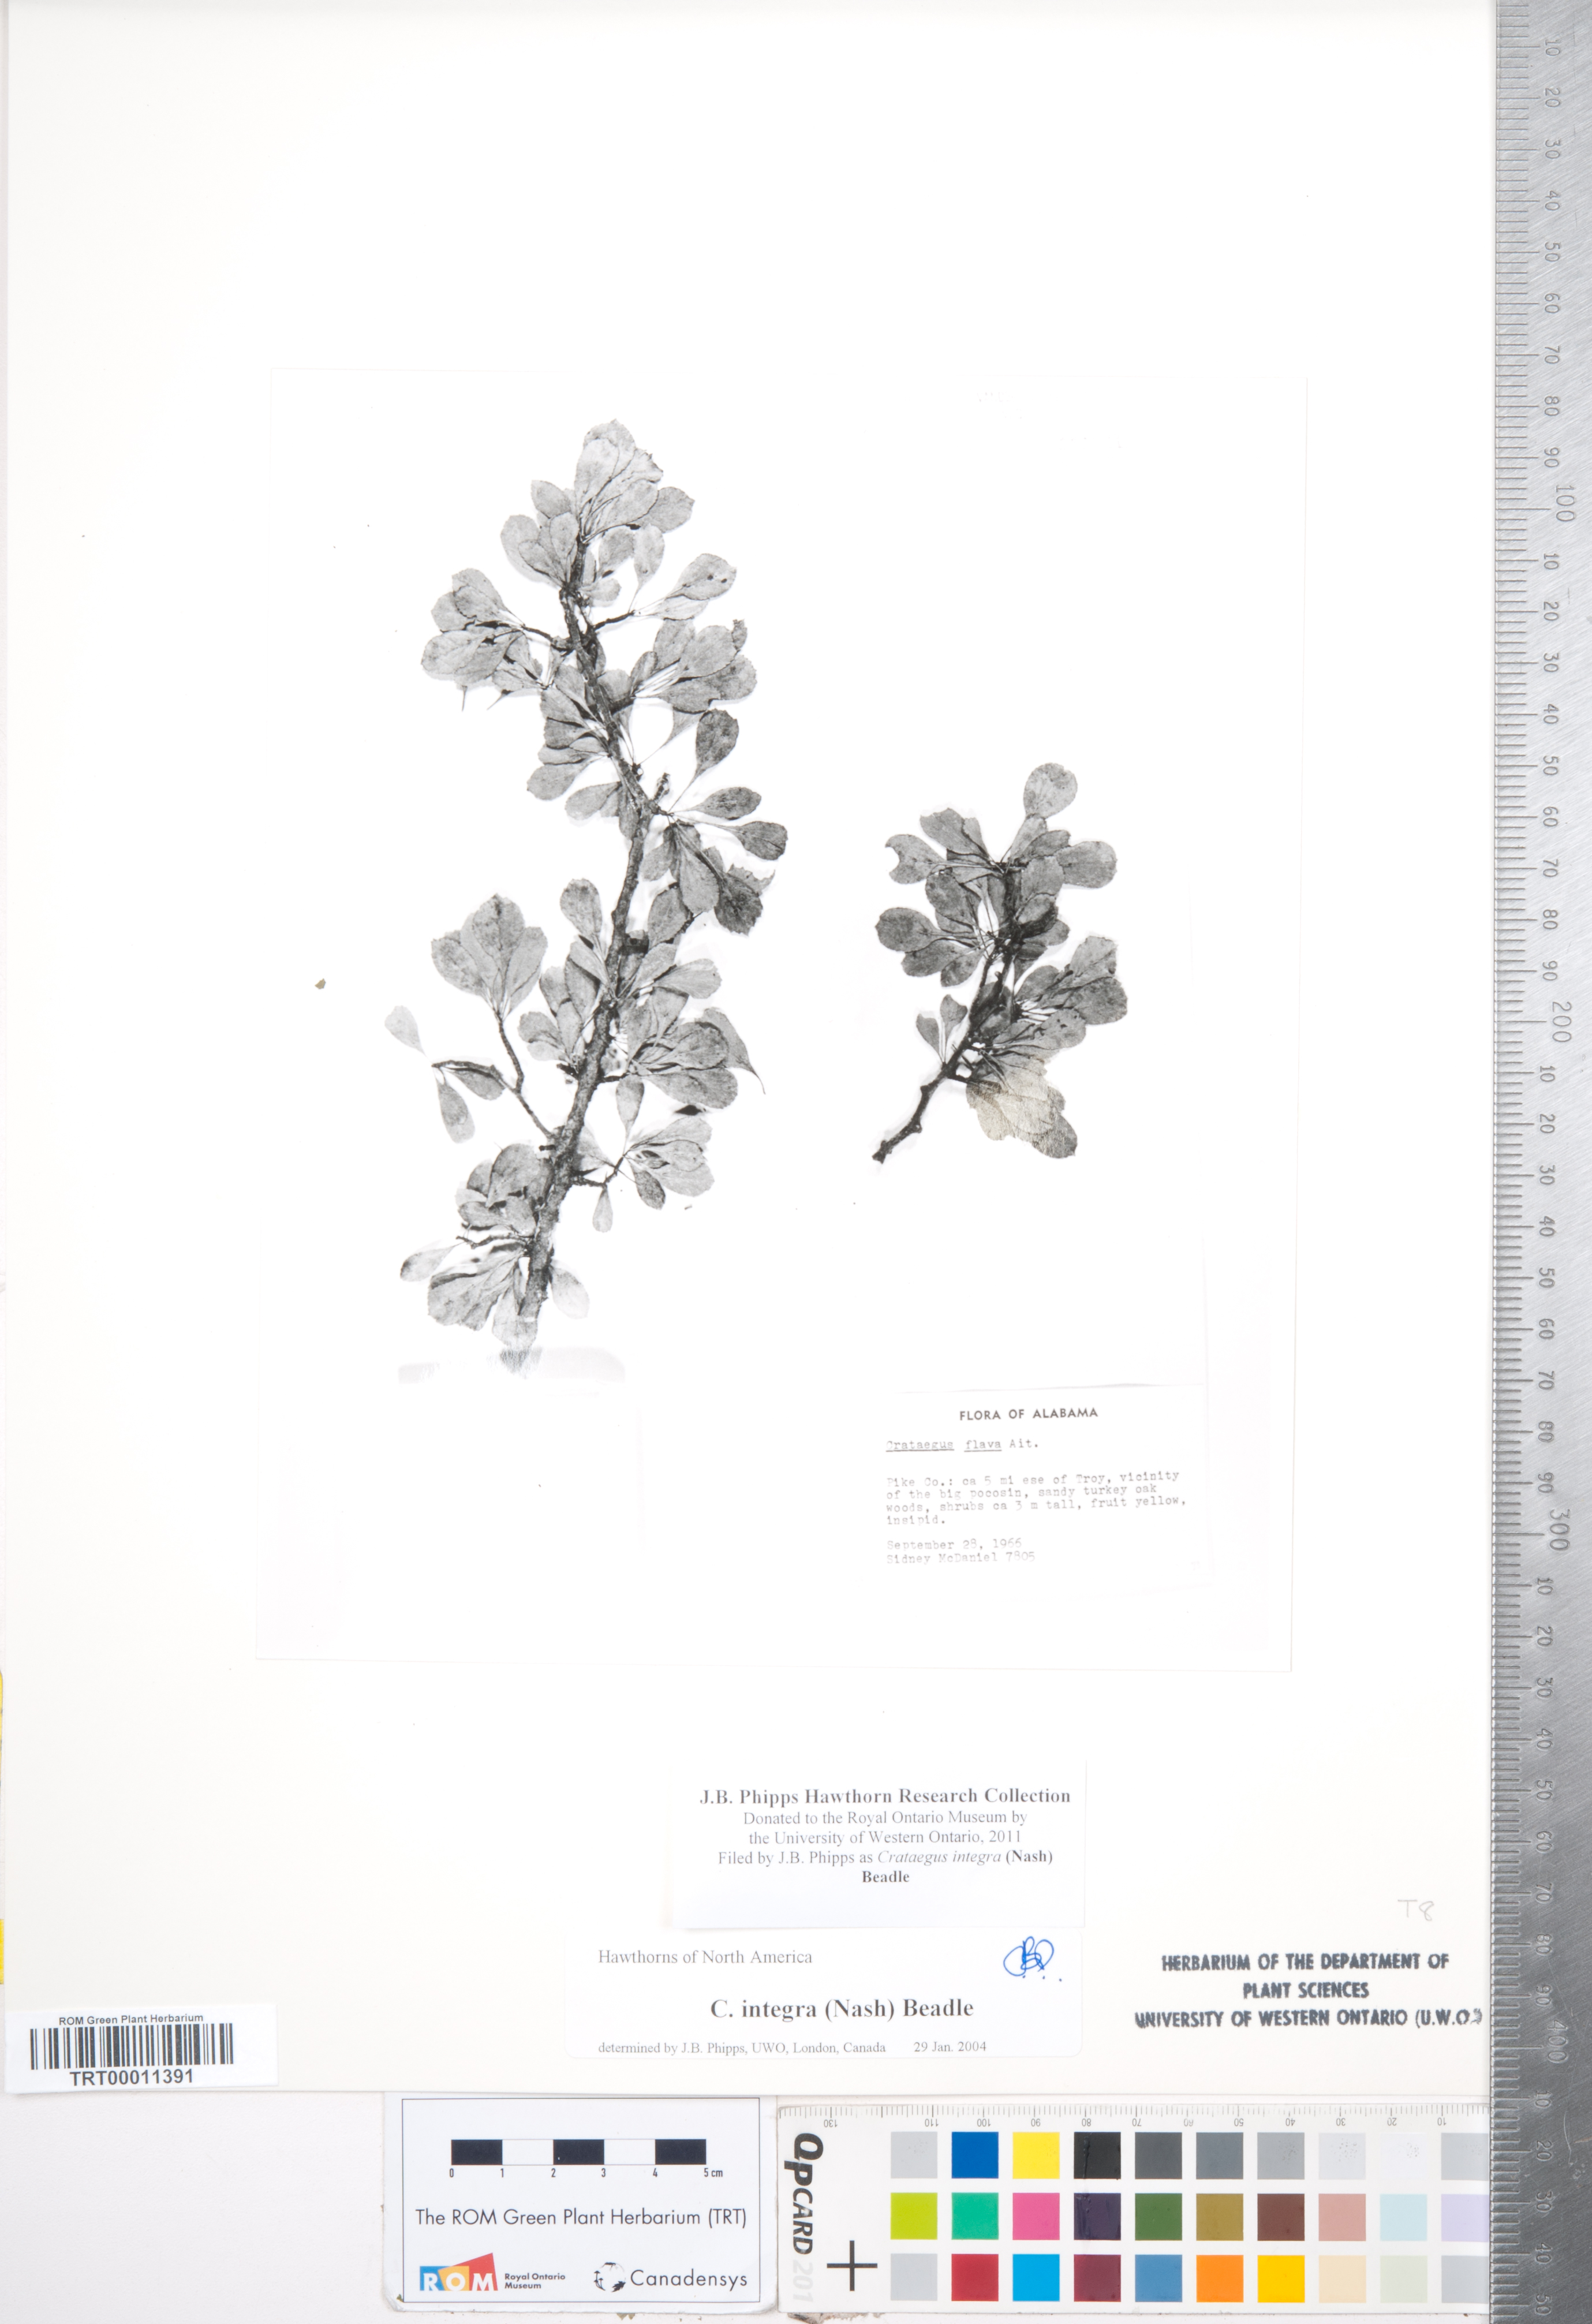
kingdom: Plantae
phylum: Tracheophyta
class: Magnoliopsida
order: Rosales
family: Rosaceae
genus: Crataegus
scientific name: Crataegus lassa
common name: Florida hawthorn
